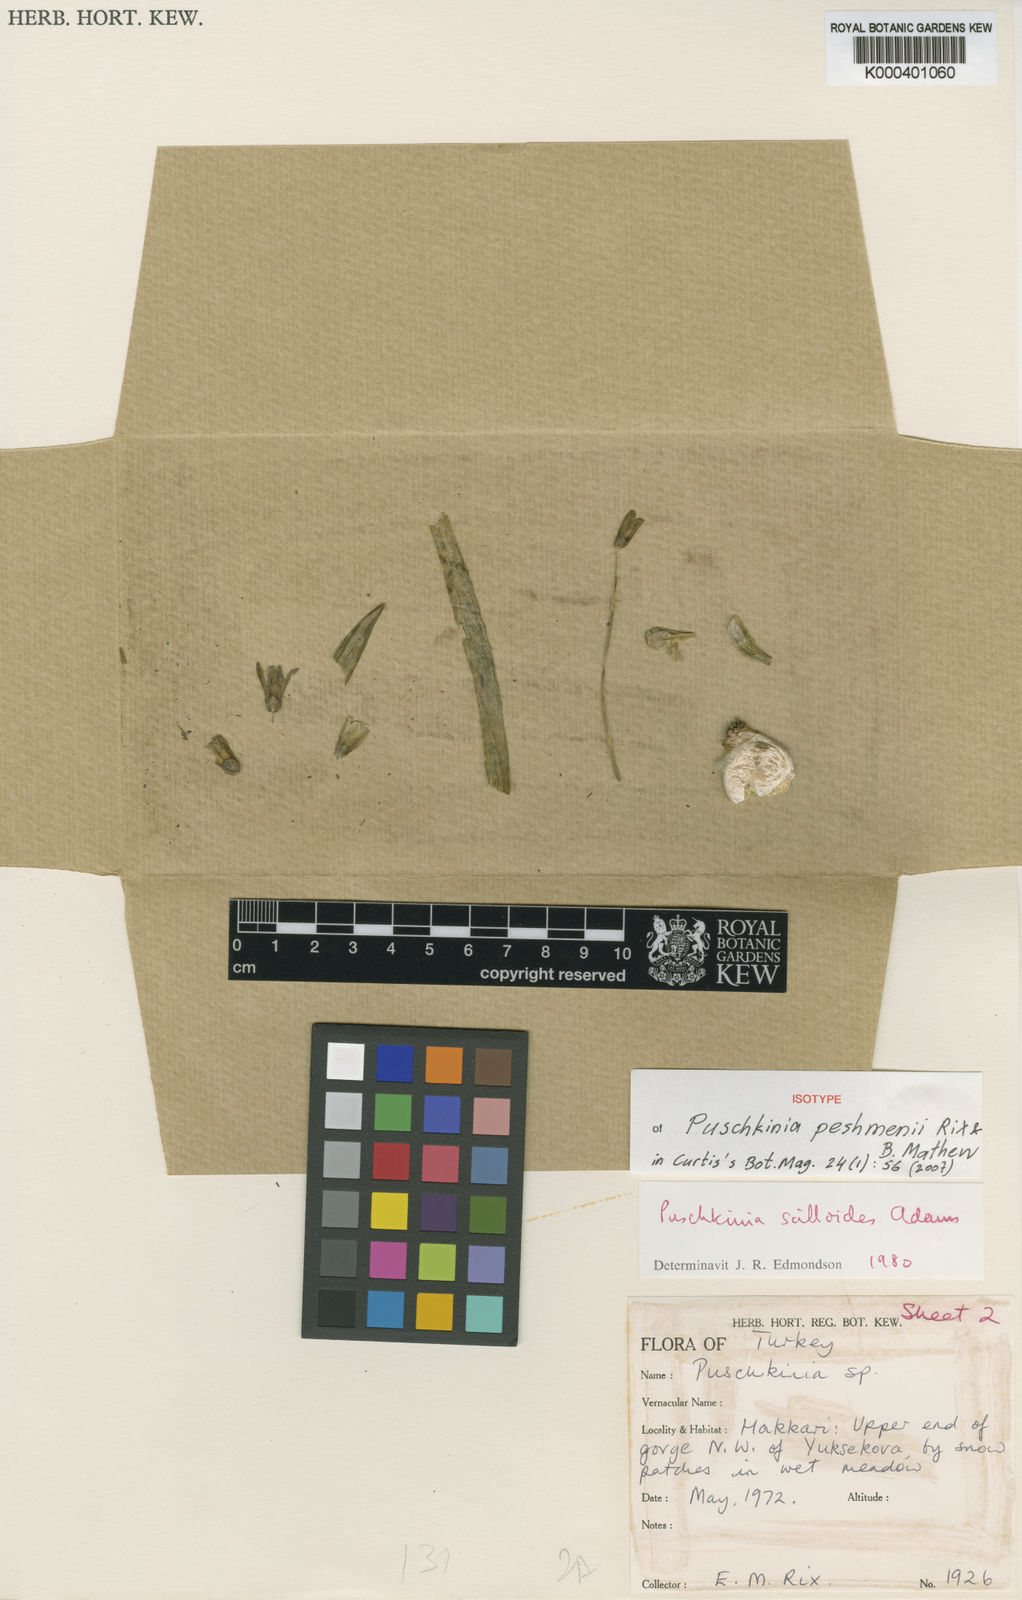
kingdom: Plantae
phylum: Tracheophyta
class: Liliopsida
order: Asparagales
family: Asparagaceae
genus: Puschkinia
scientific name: Puschkinia peshmenii
